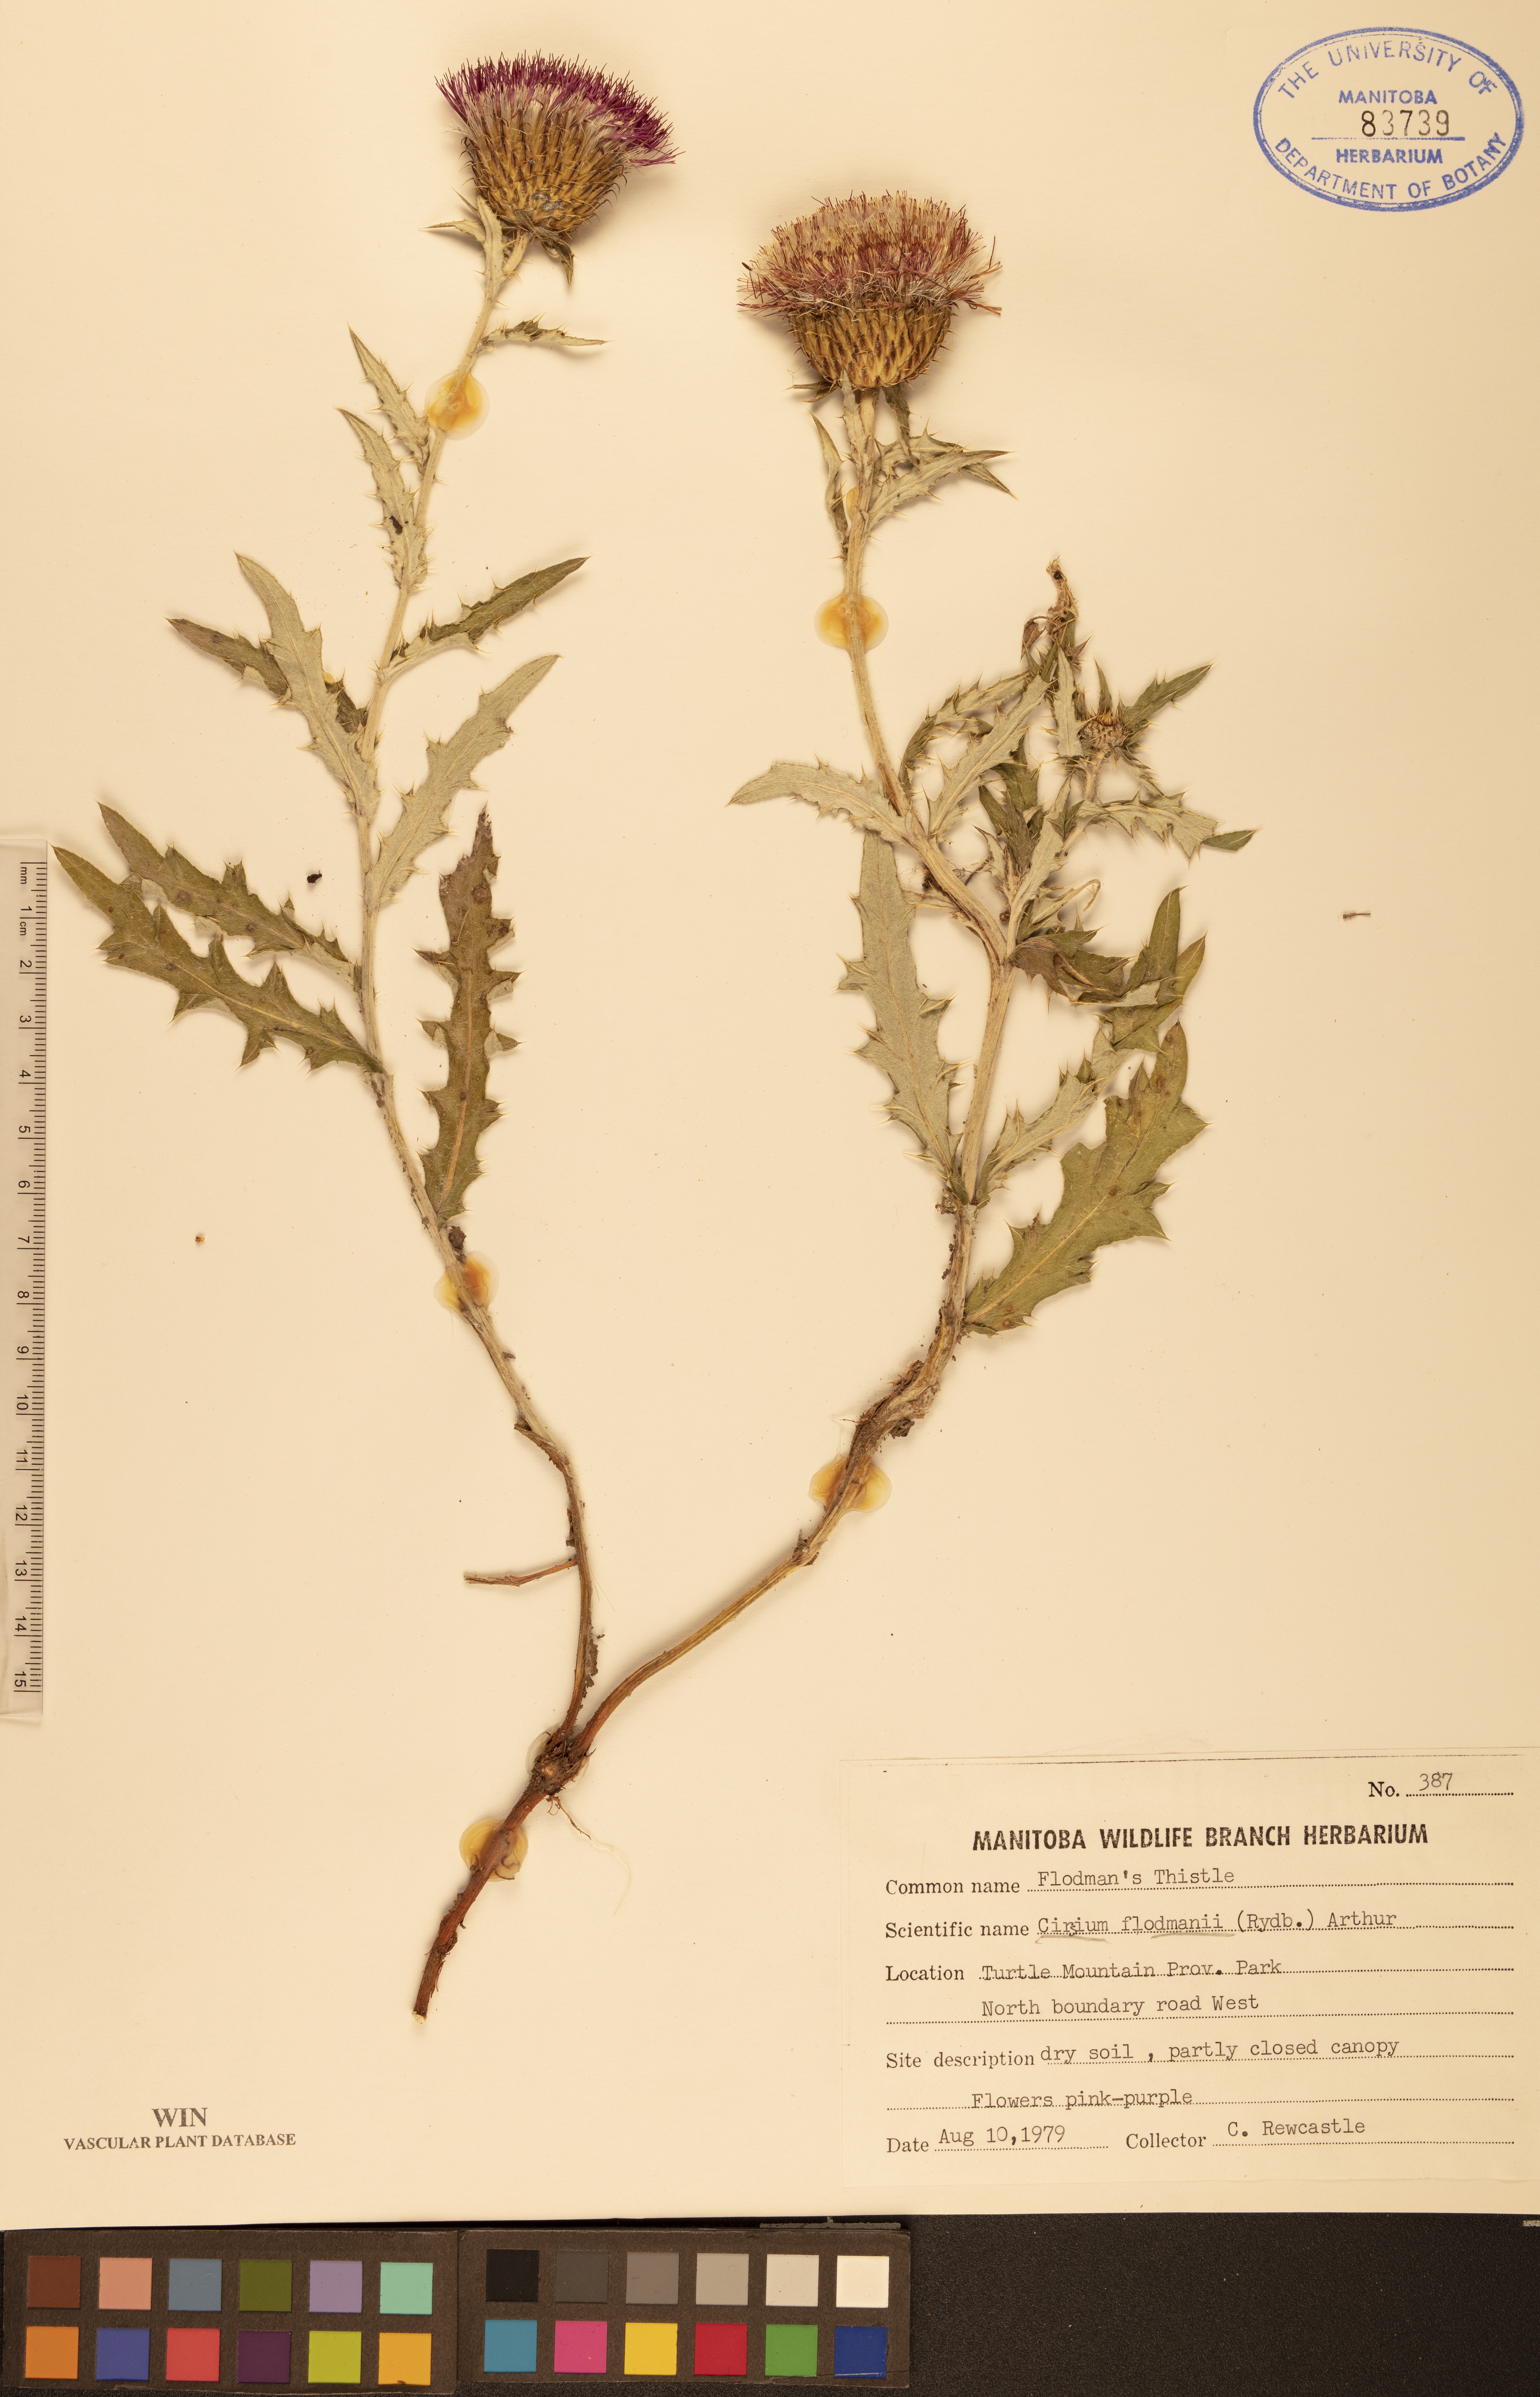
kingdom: Plantae
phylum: Tracheophyta
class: Magnoliopsida
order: Asterales
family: Asteraceae
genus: Cirsium
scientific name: Cirsium flodmanii
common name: Flodman's thistle
